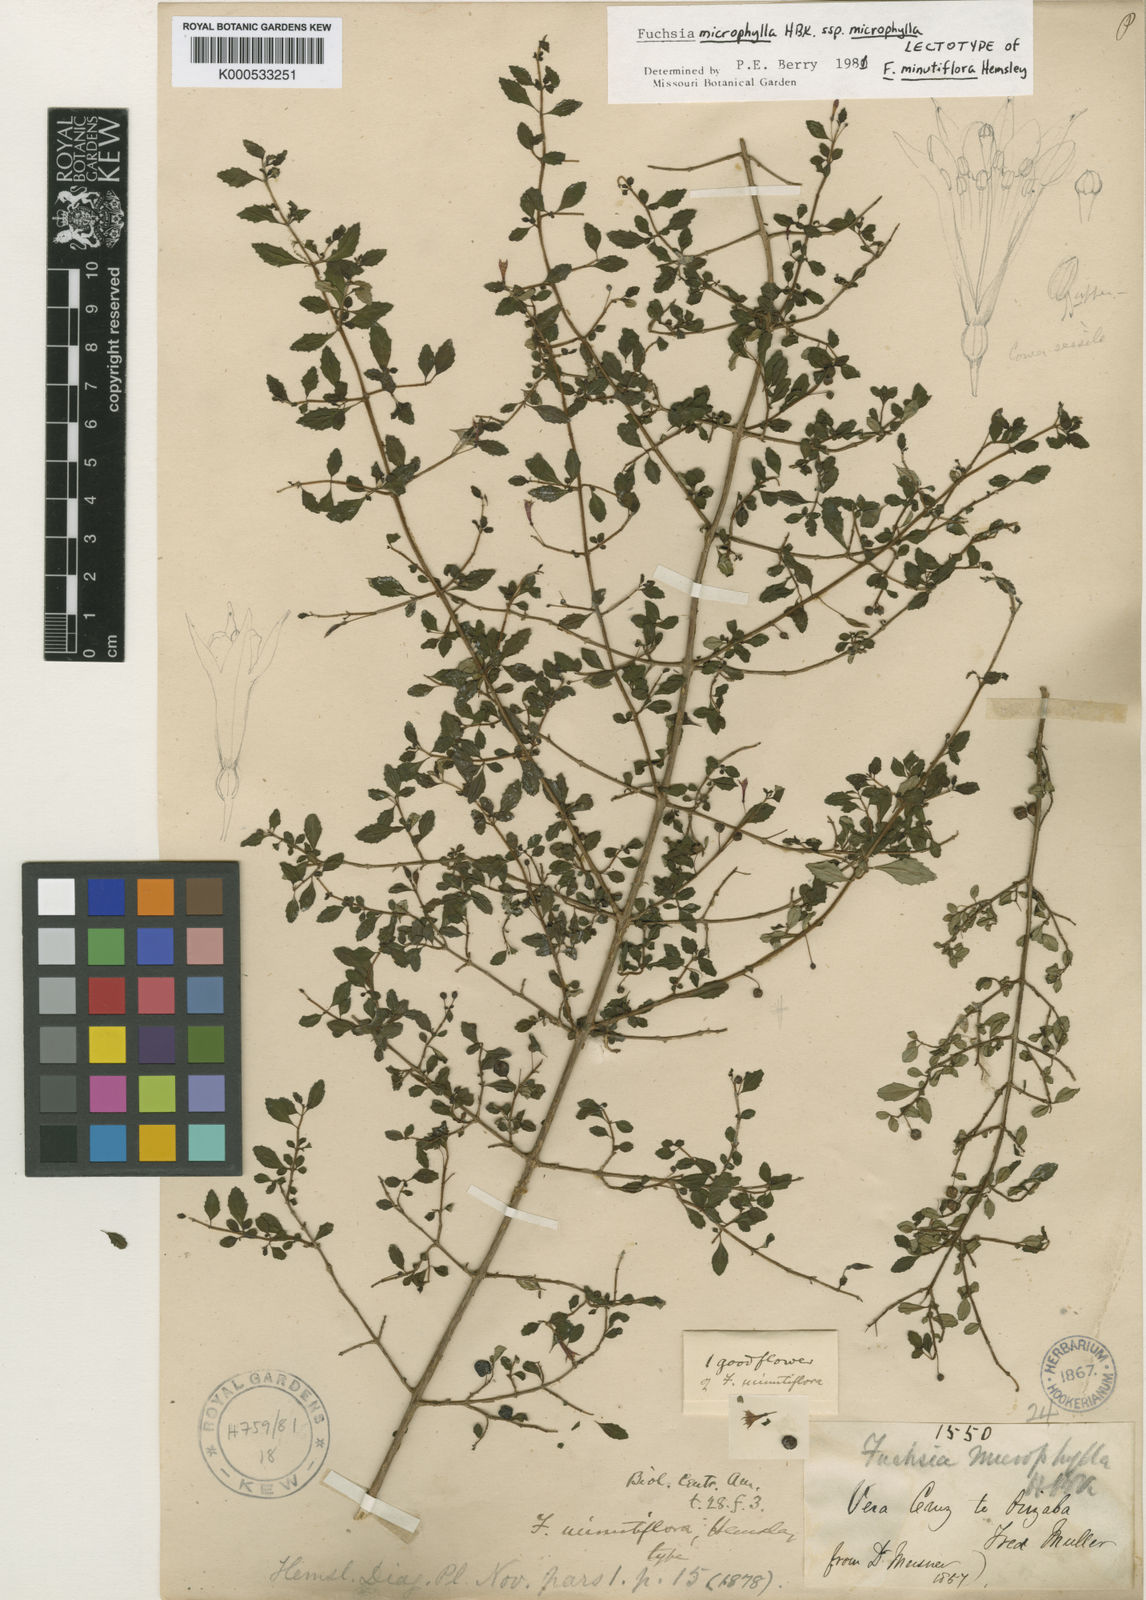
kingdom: Plantae
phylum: Tracheophyta
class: Magnoliopsida
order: Myrtales
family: Onagraceae
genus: Fuchsia
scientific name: Fuchsia microphylla
